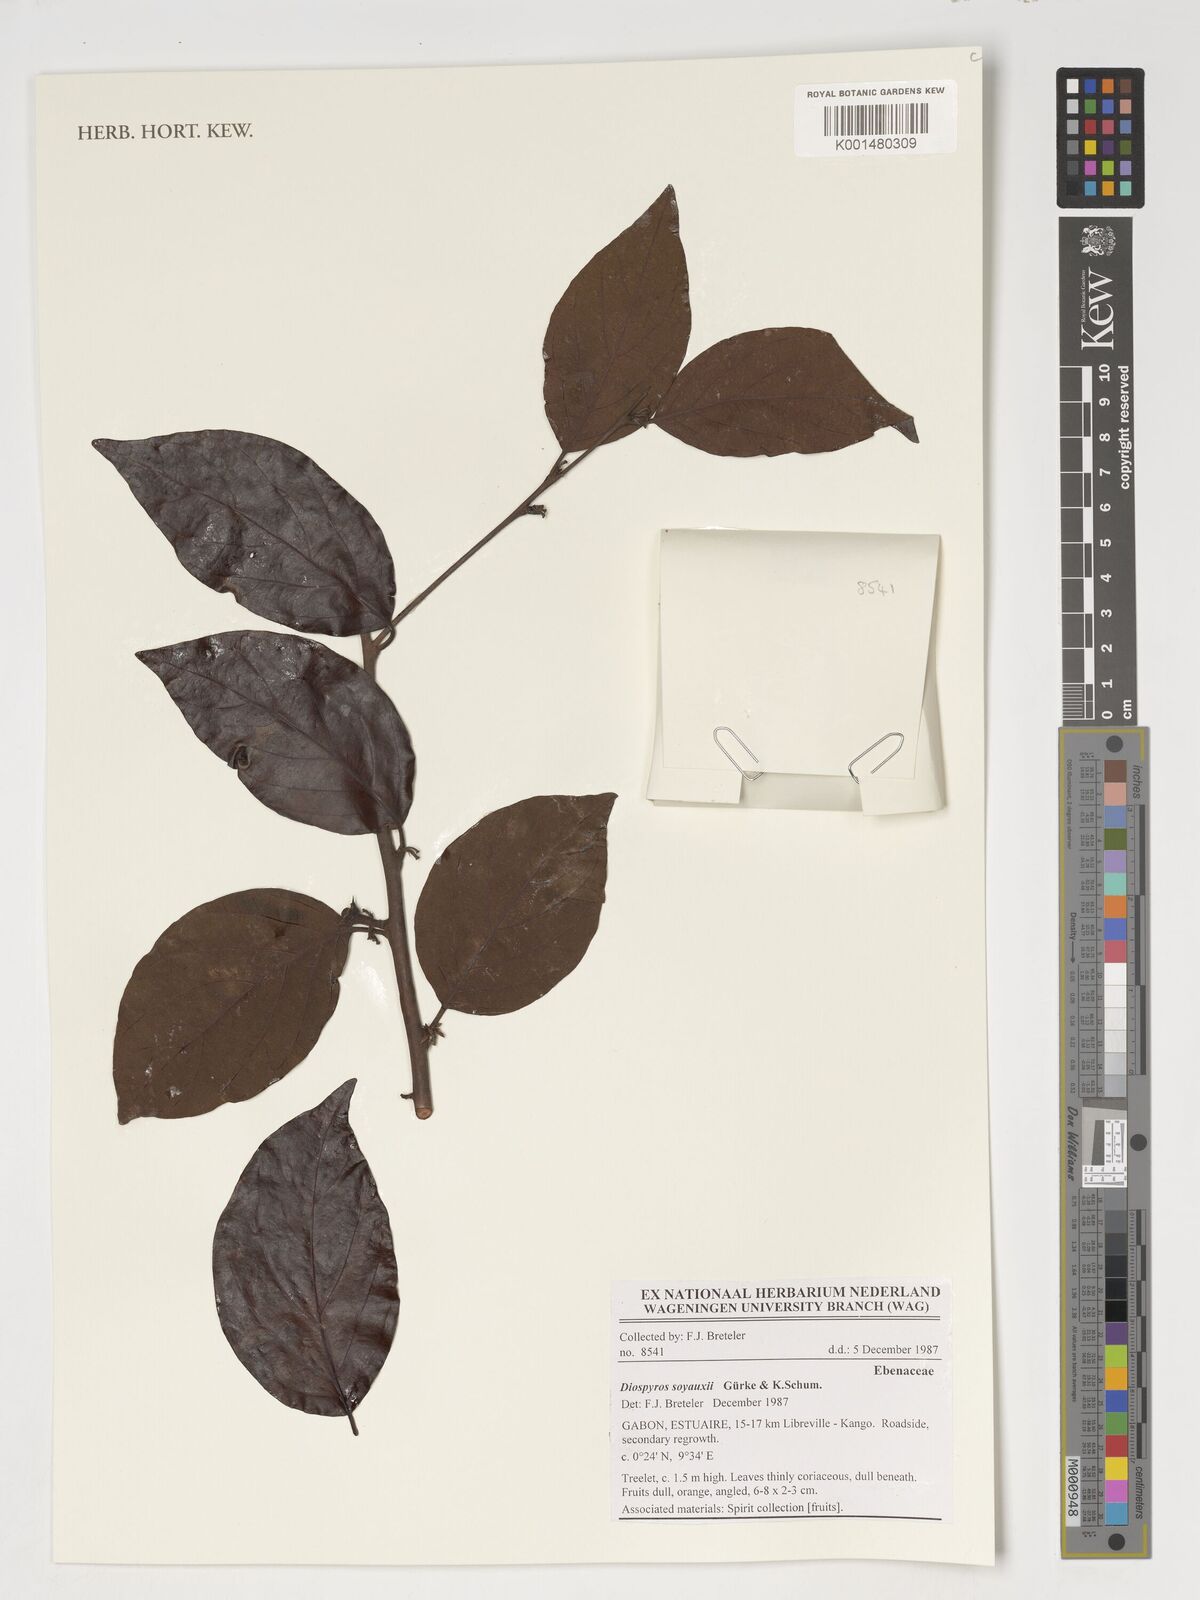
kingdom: Plantae
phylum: Tracheophyta
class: Magnoliopsida
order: Ericales
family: Ebenaceae
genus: Diospyros
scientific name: Diospyros soyauxii
